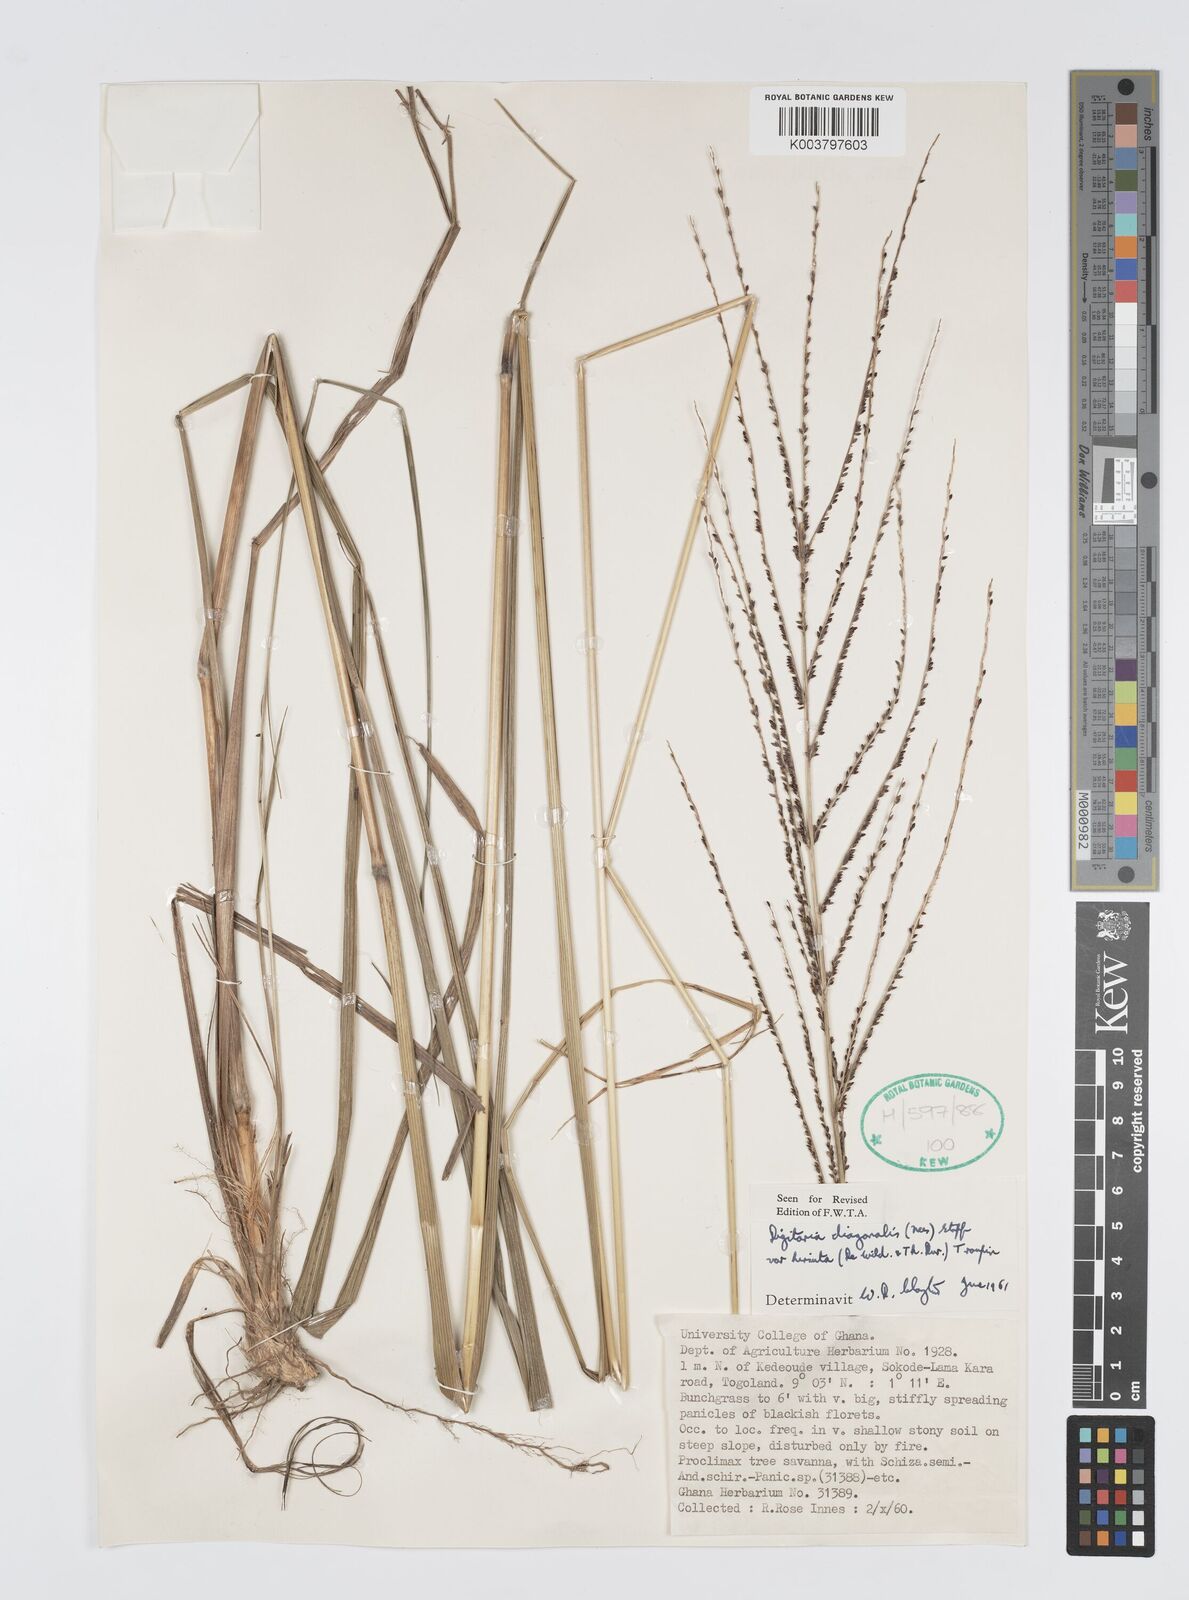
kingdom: Plantae
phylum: Tracheophyta
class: Liliopsida
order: Poales
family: Poaceae
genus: Digitaria
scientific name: Digitaria diagonalis
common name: Brown-seed finger grass
